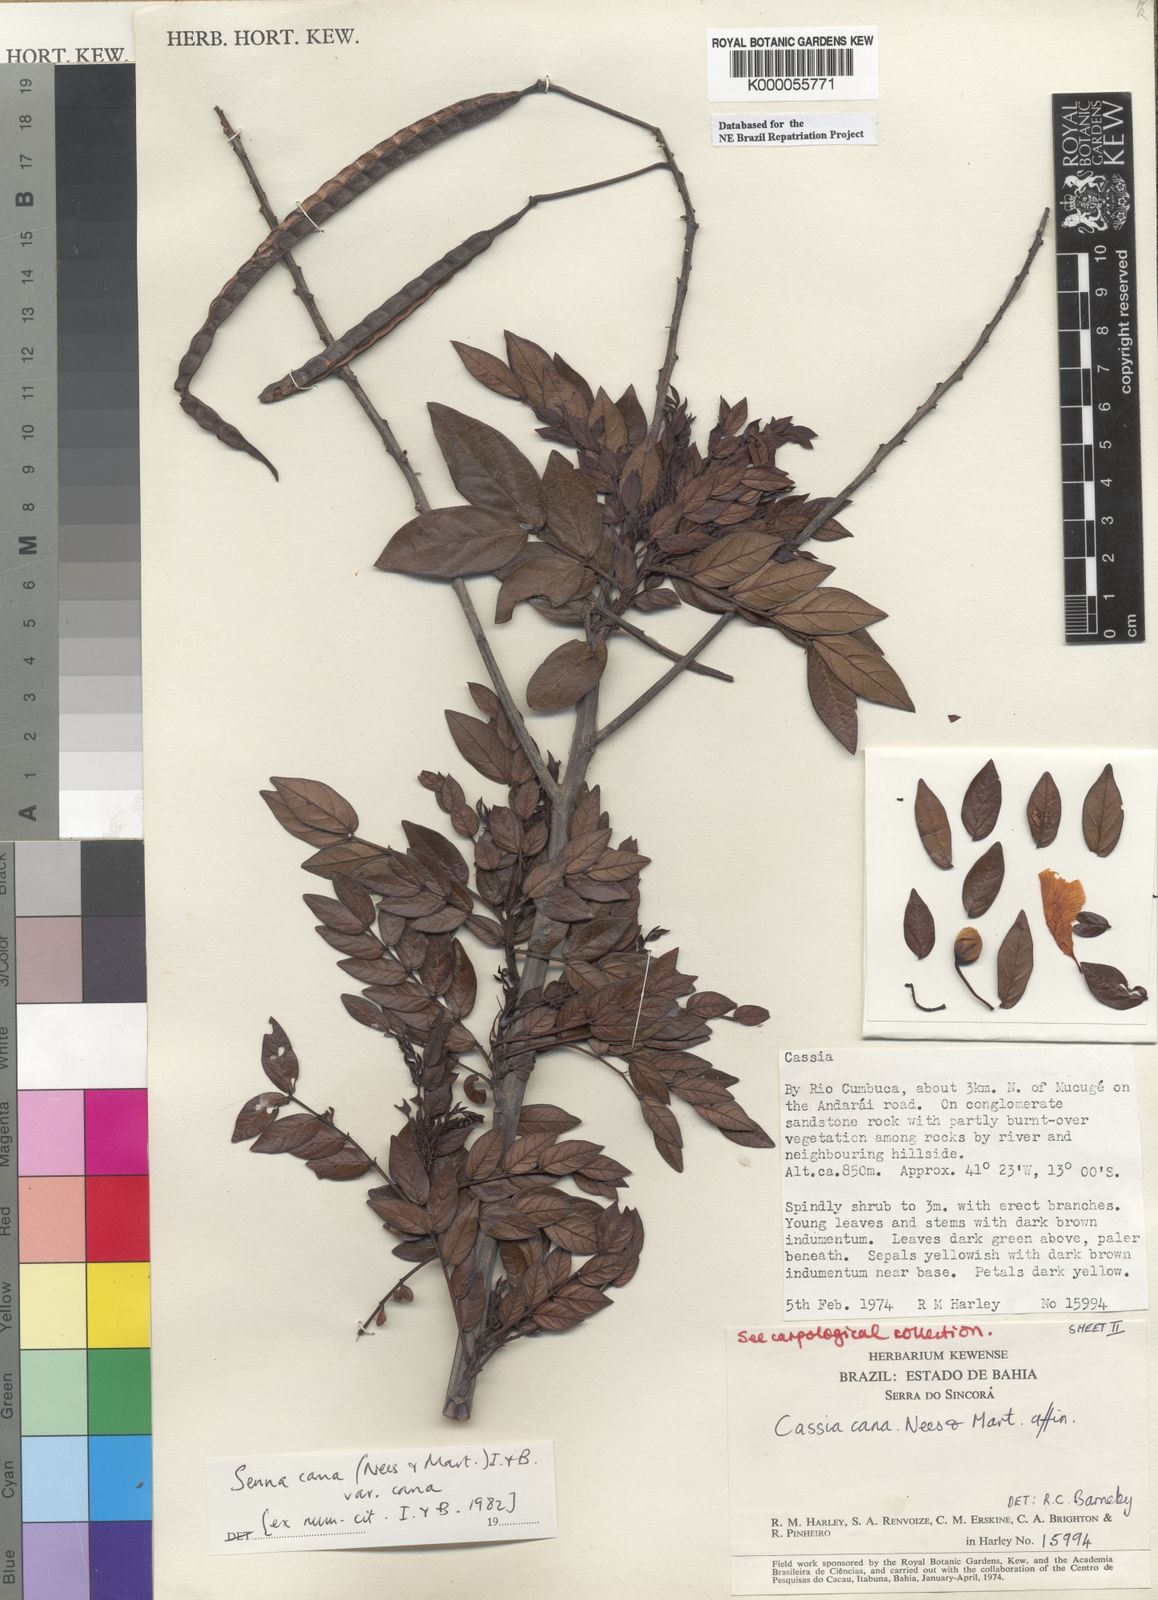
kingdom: Plantae
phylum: Tracheophyta
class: Magnoliopsida
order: Fabales
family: Fabaceae
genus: Senna
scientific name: Senna cana
